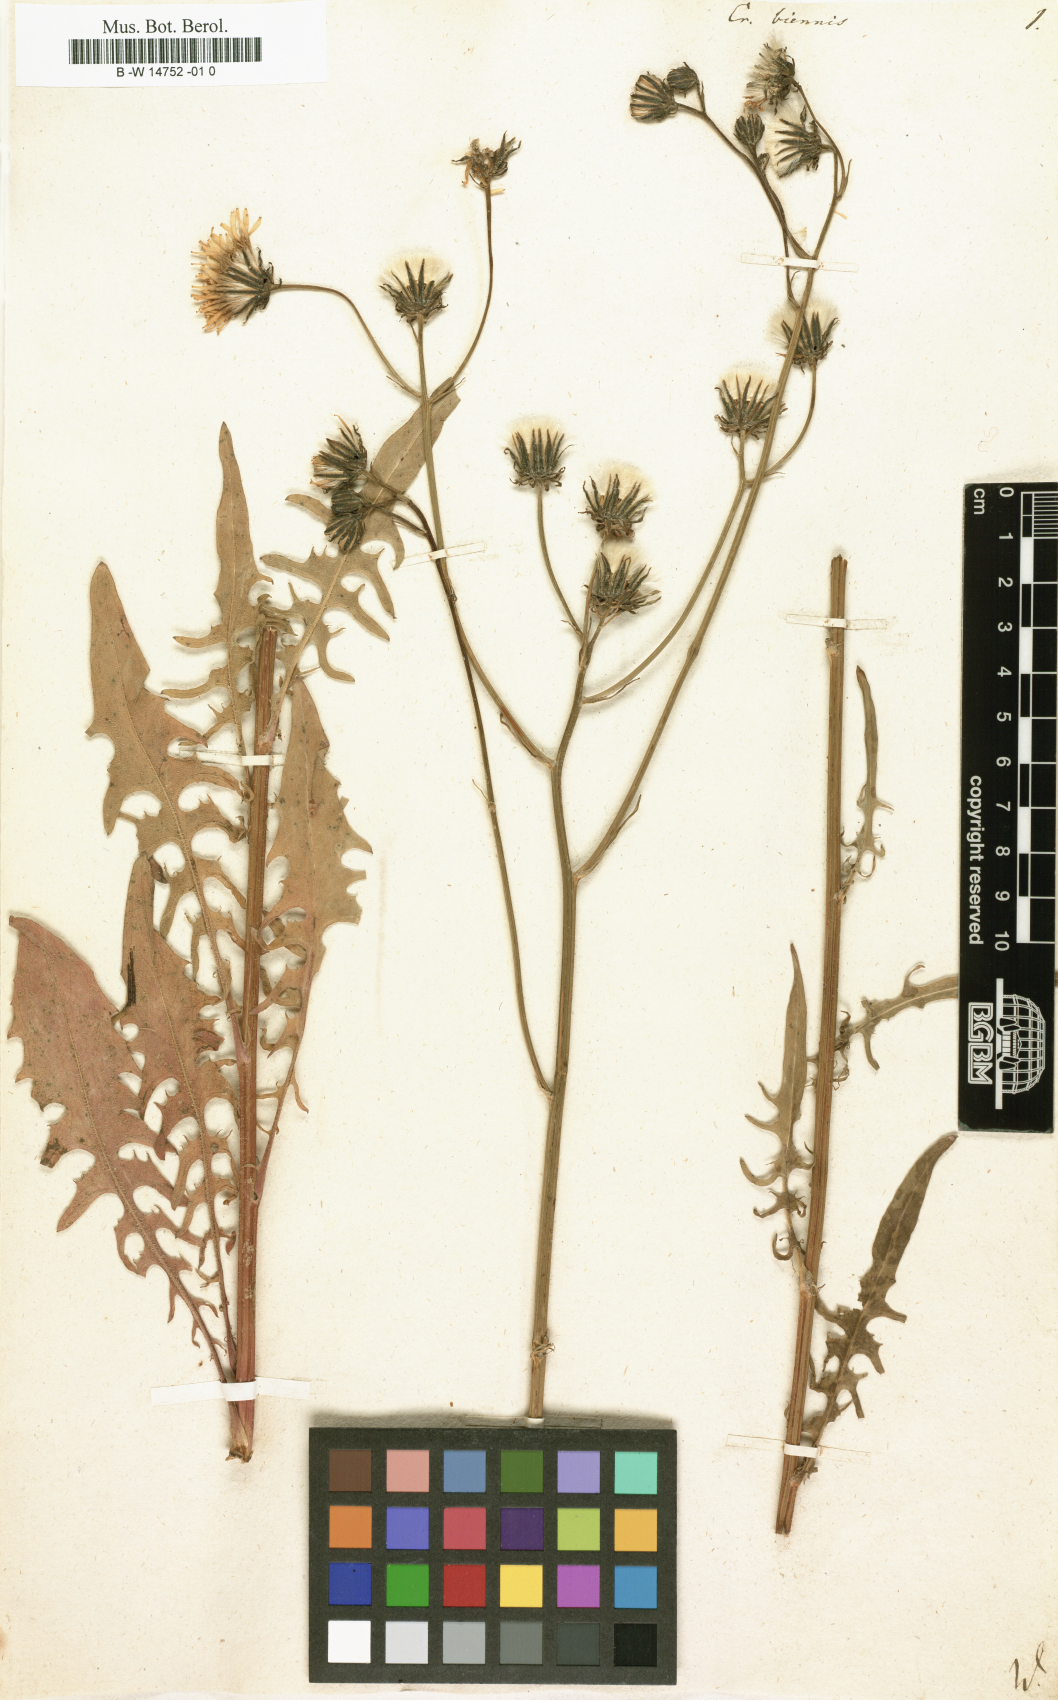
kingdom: Plantae
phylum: Tracheophyta
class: Magnoliopsida
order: Asterales
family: Asteraceae
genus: Crepis
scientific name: Crepis biennis
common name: Rough hawk's-beard
